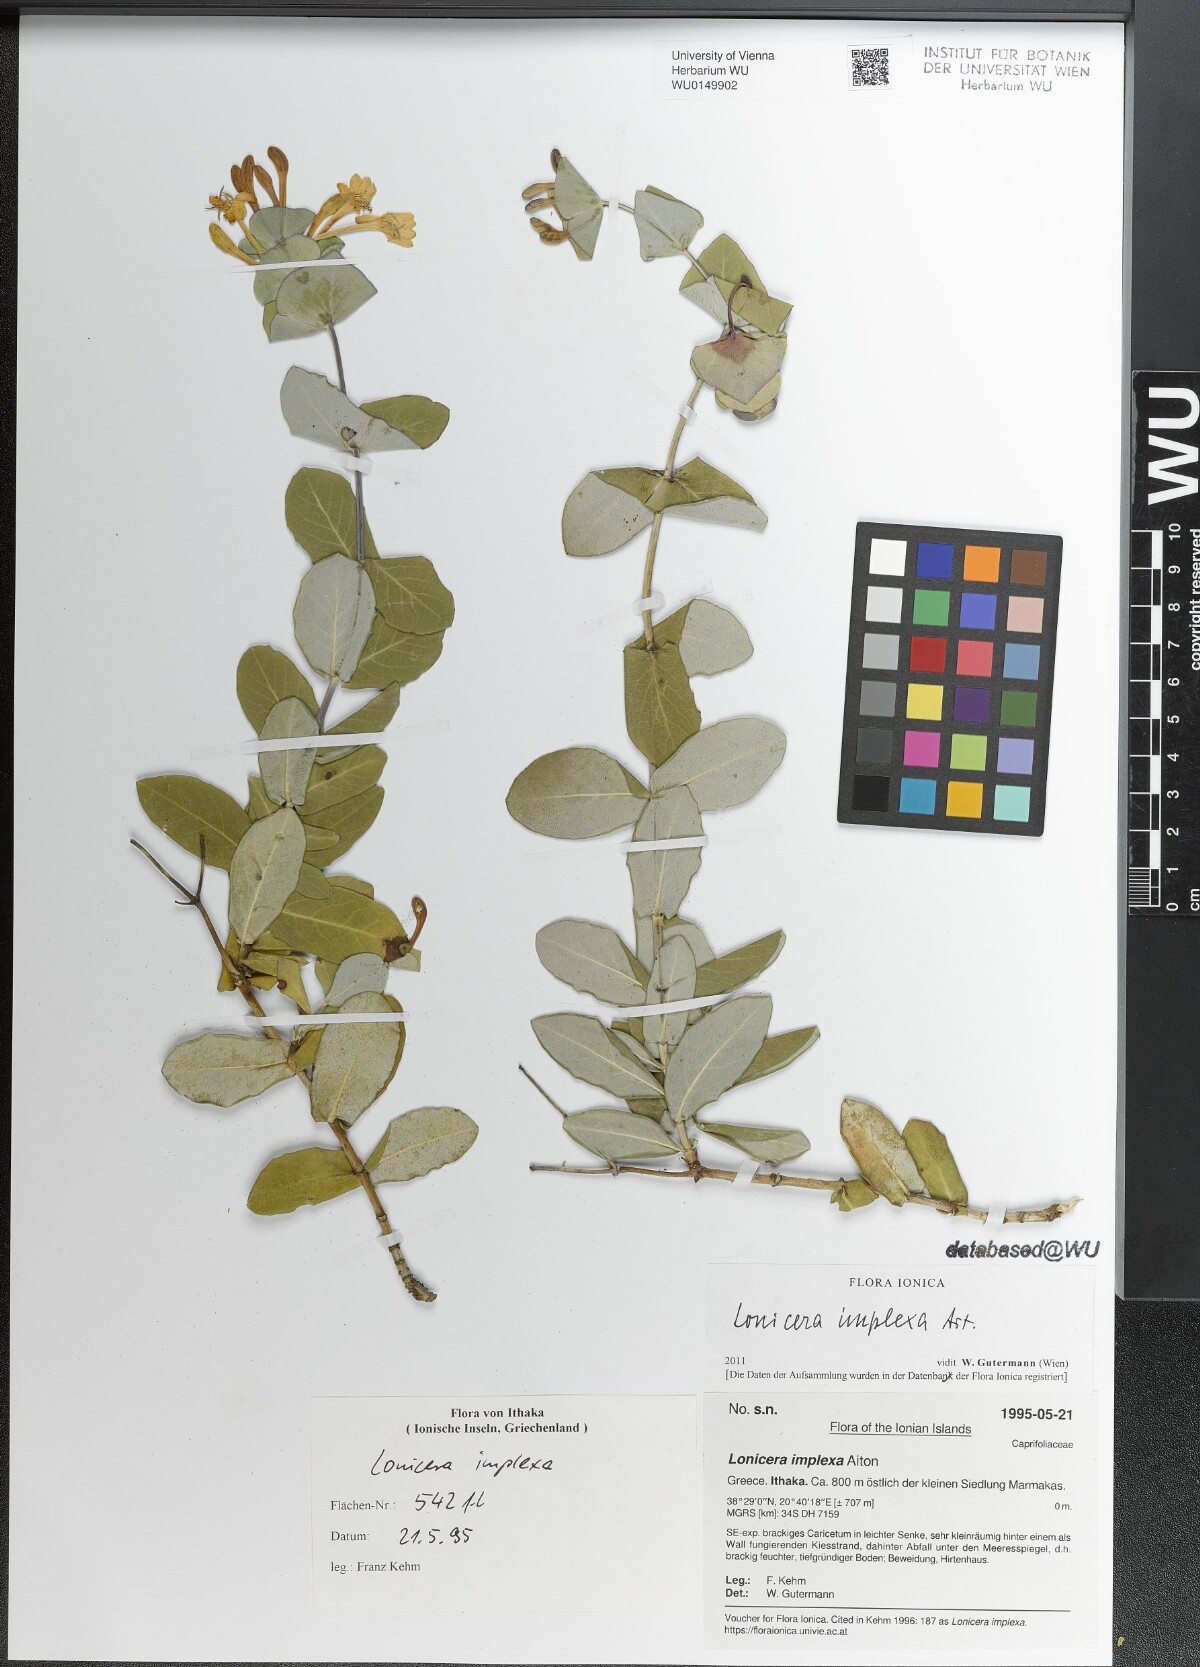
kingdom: Plantae
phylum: Tracheophyta
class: Magnoliopsida
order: Dipsacales
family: Caprifoliaceae
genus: Lonicera
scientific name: Lonicera implexa
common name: Minorca honeysuckle
